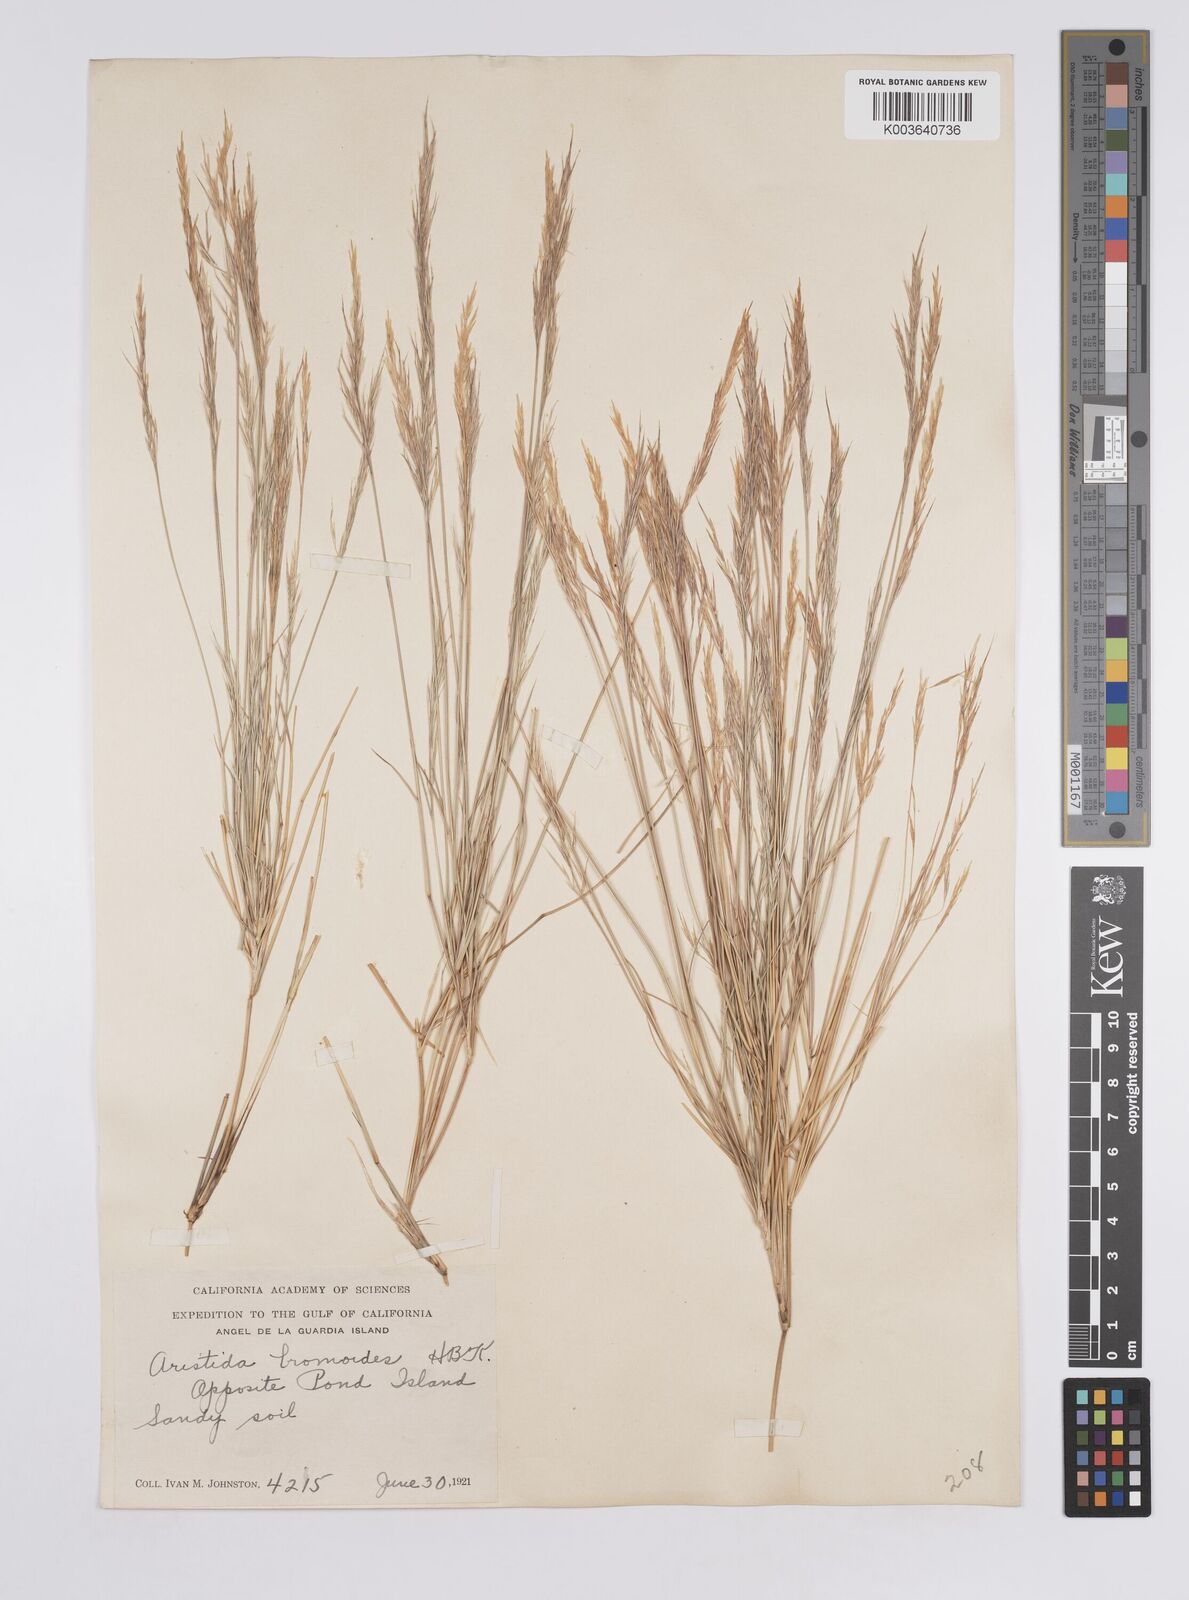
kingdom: Plantae
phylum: Tracheophyta
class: Liliopsida
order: Poales
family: Poaceae
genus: Aristida
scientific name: Aristida adscensionis
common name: Sixweeks threeawn
